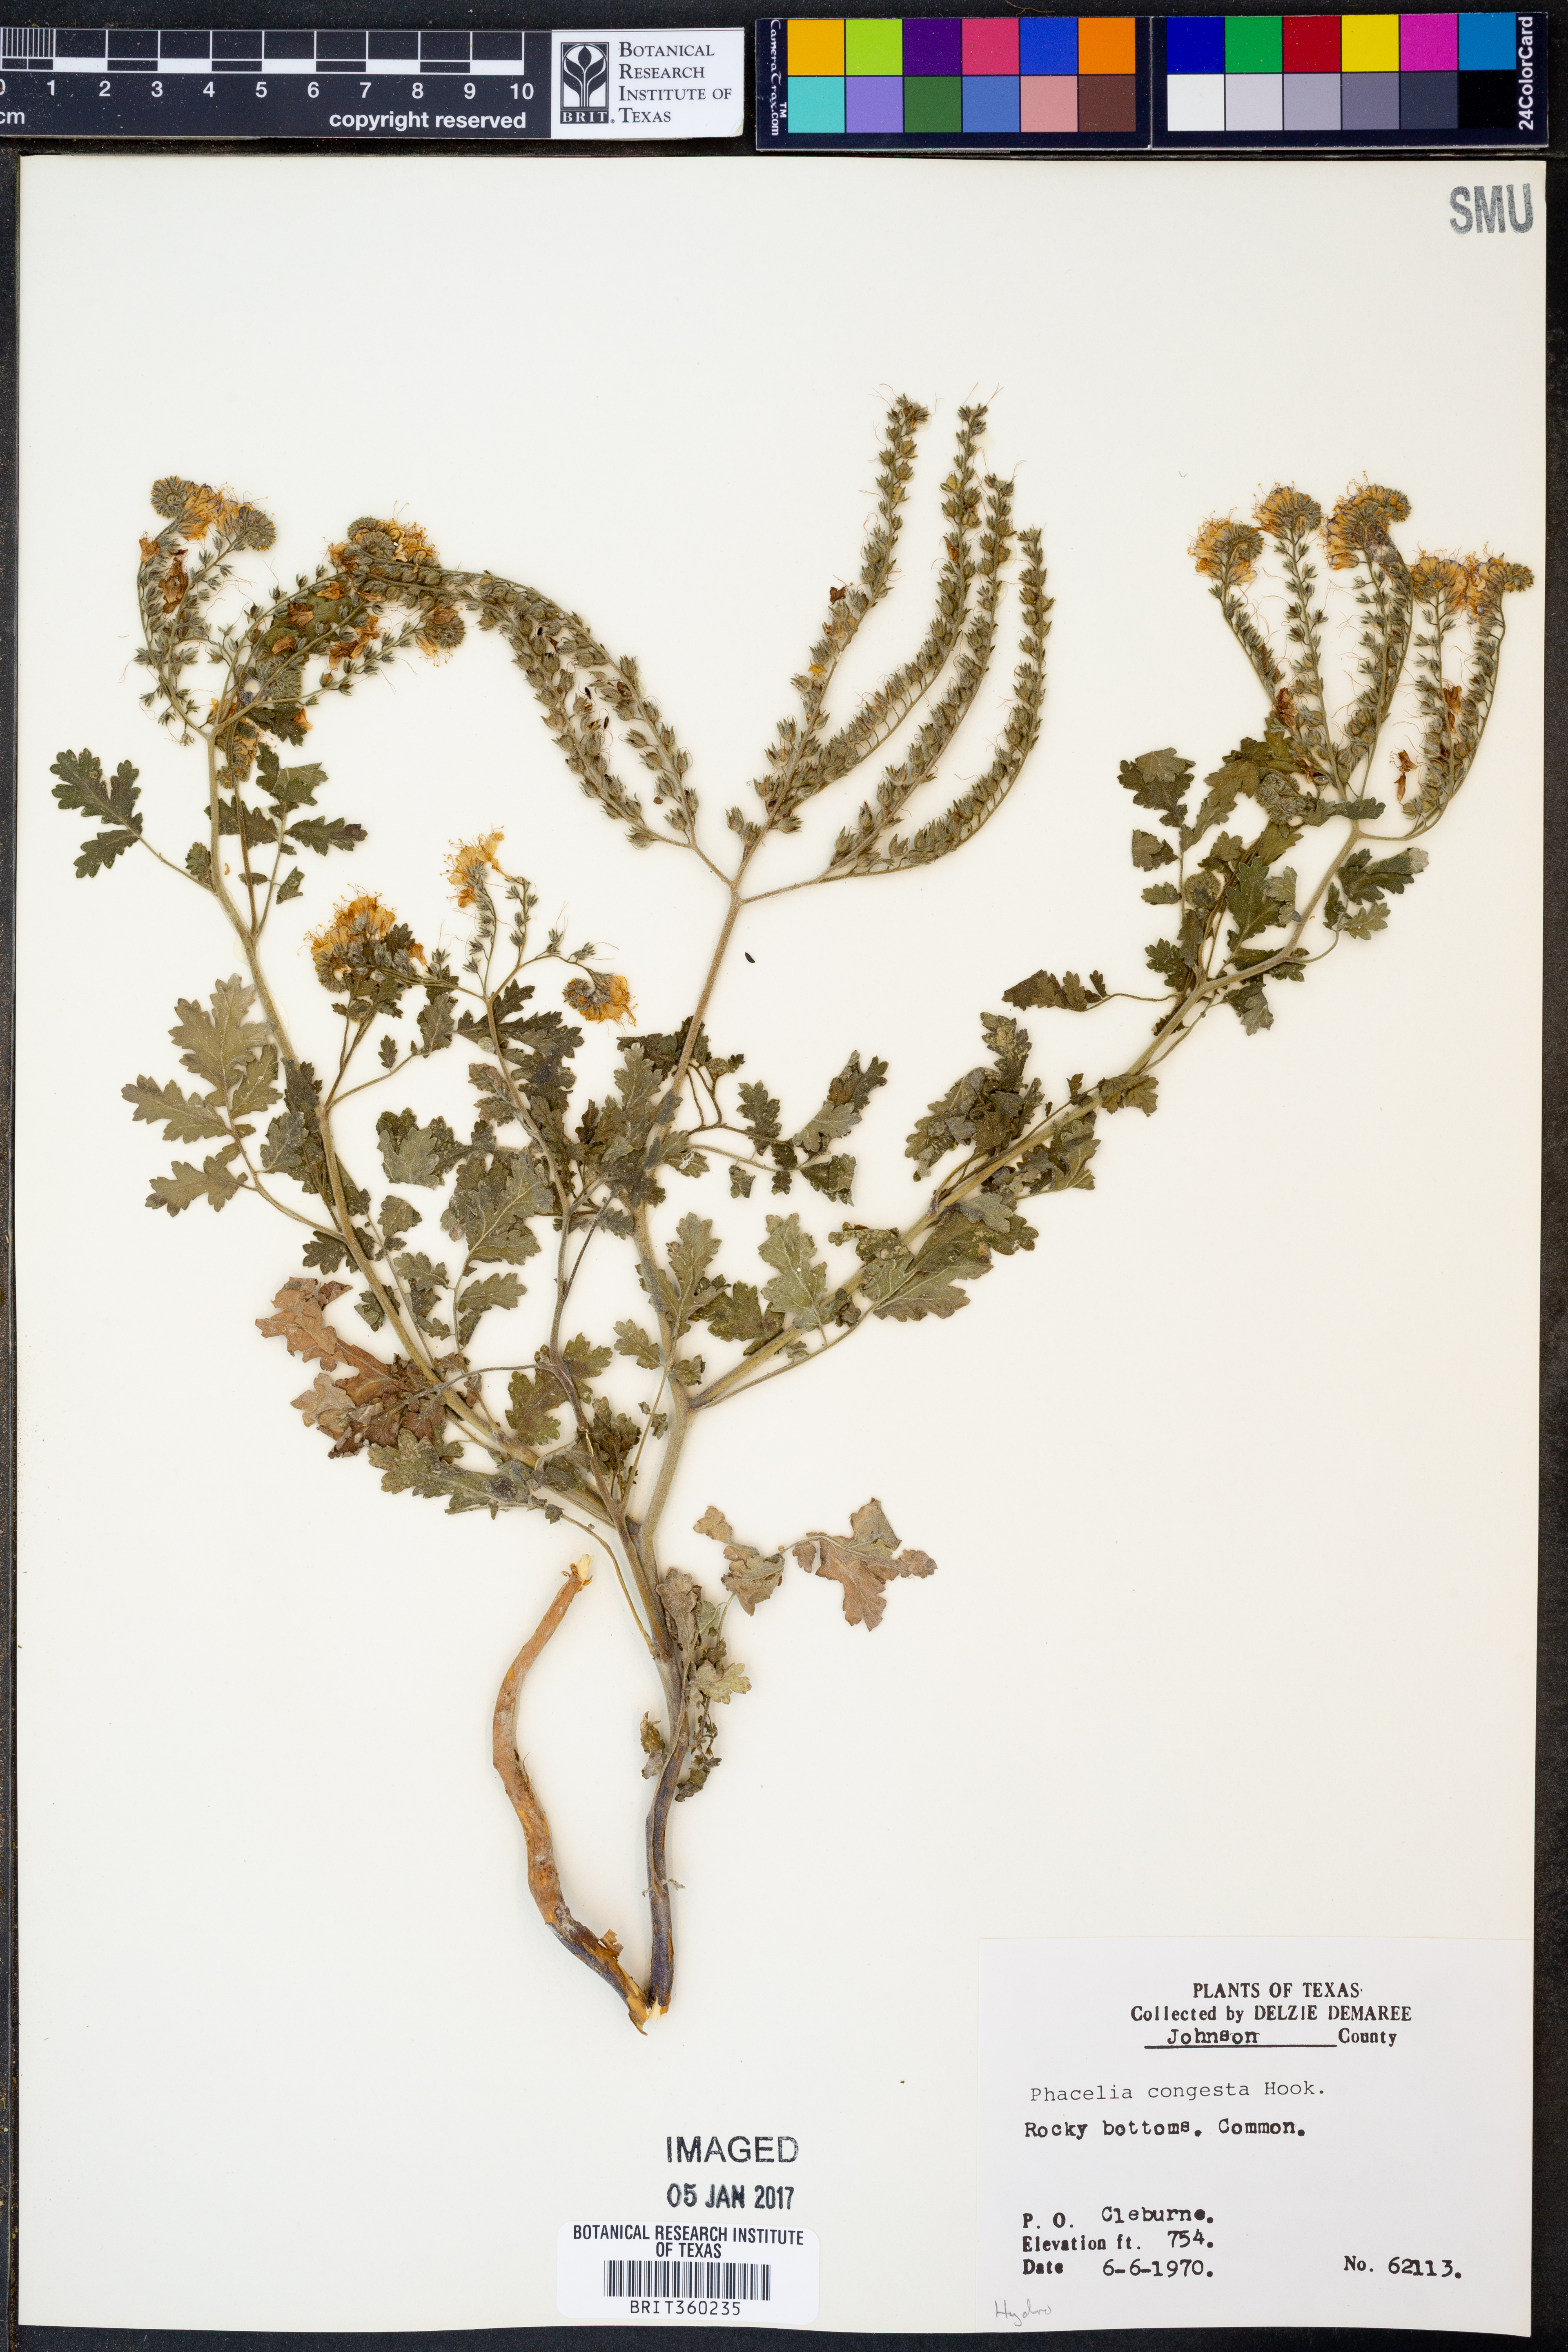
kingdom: Plantae
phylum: Tracheophyta
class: Magnoliopsida
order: Boraginales
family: Hydrophyllaceae
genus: Phacelia
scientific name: Phacelia congesta
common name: Blue curls
